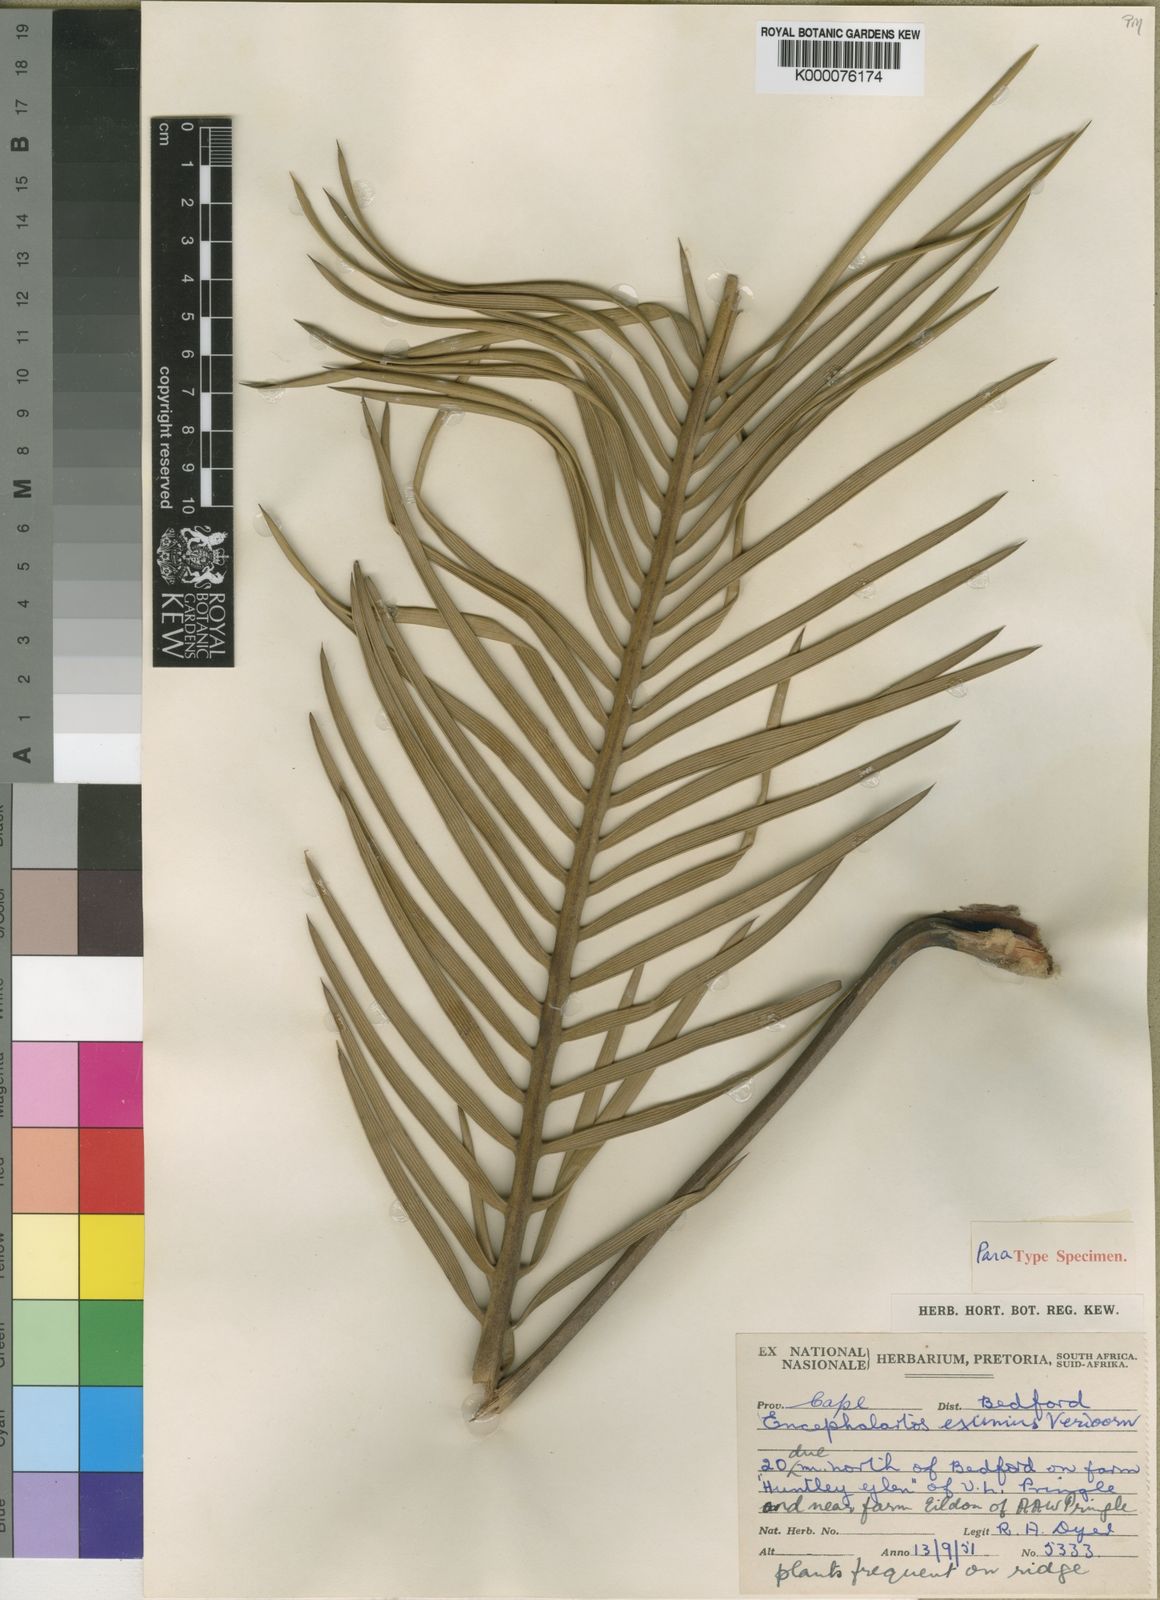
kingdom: Plantae
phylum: Tracheophyta
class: Cycadopsida
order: Cycadales
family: Zamiaceae
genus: Encephalartos
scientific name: Encephalartos cycadifolius
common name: Winterberg cycad
